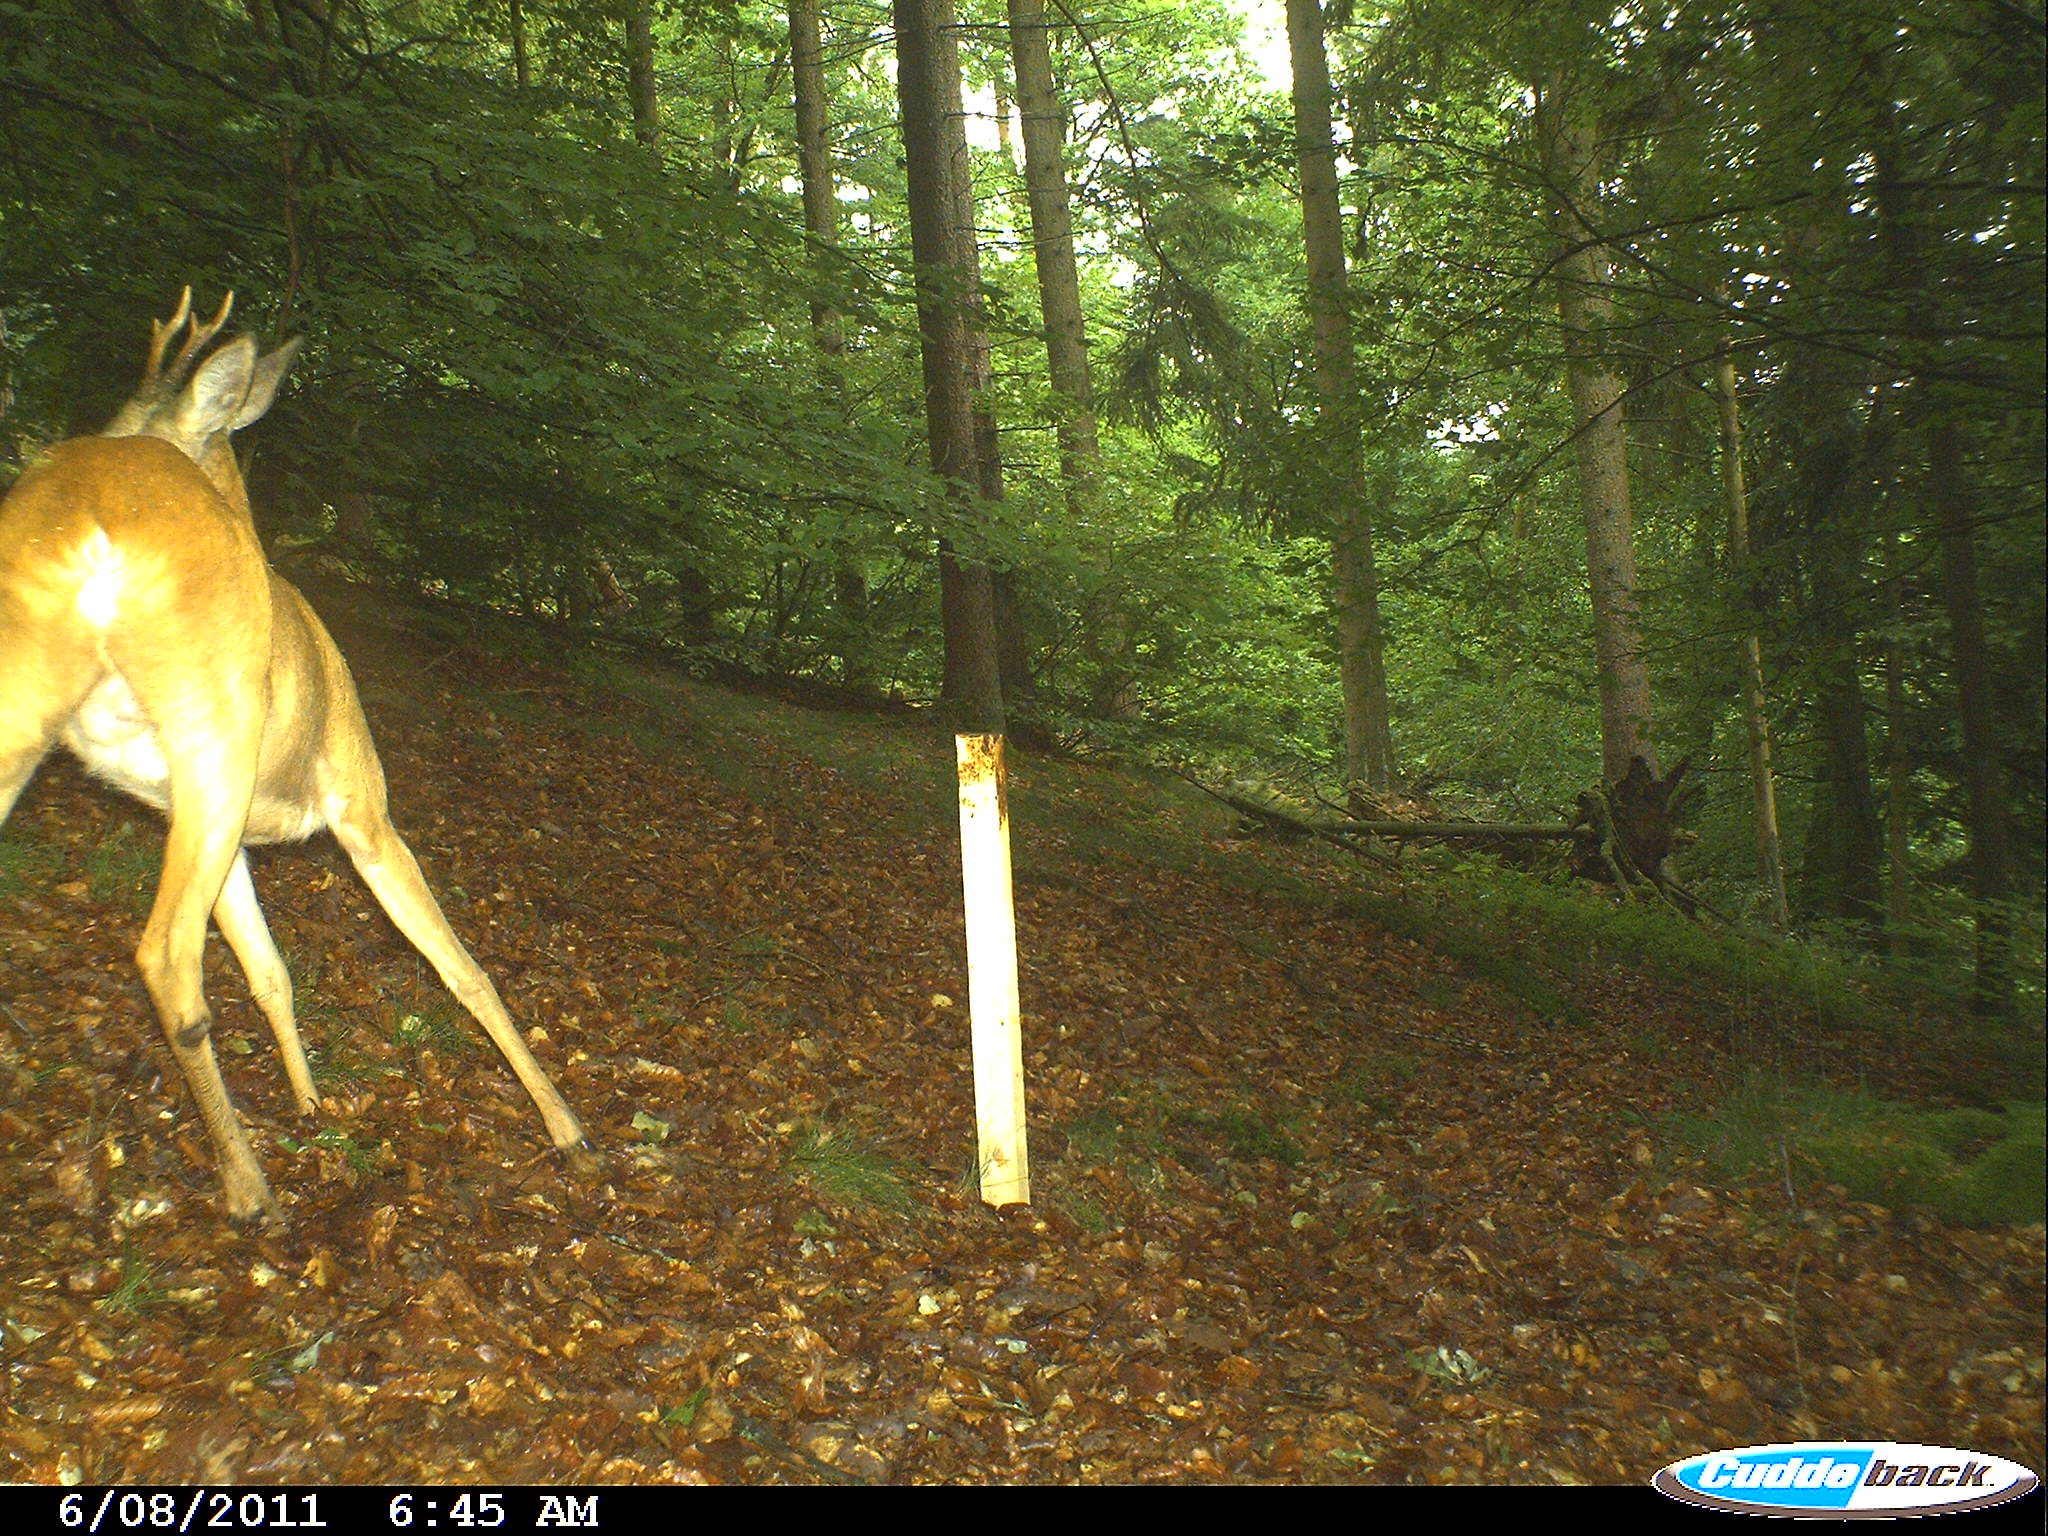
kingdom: Animalia
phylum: Chordata
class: Mammalia
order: Artiodactyla
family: Cervidae
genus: Capreolus
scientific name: Capreolus capreolus
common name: Western roe deer
